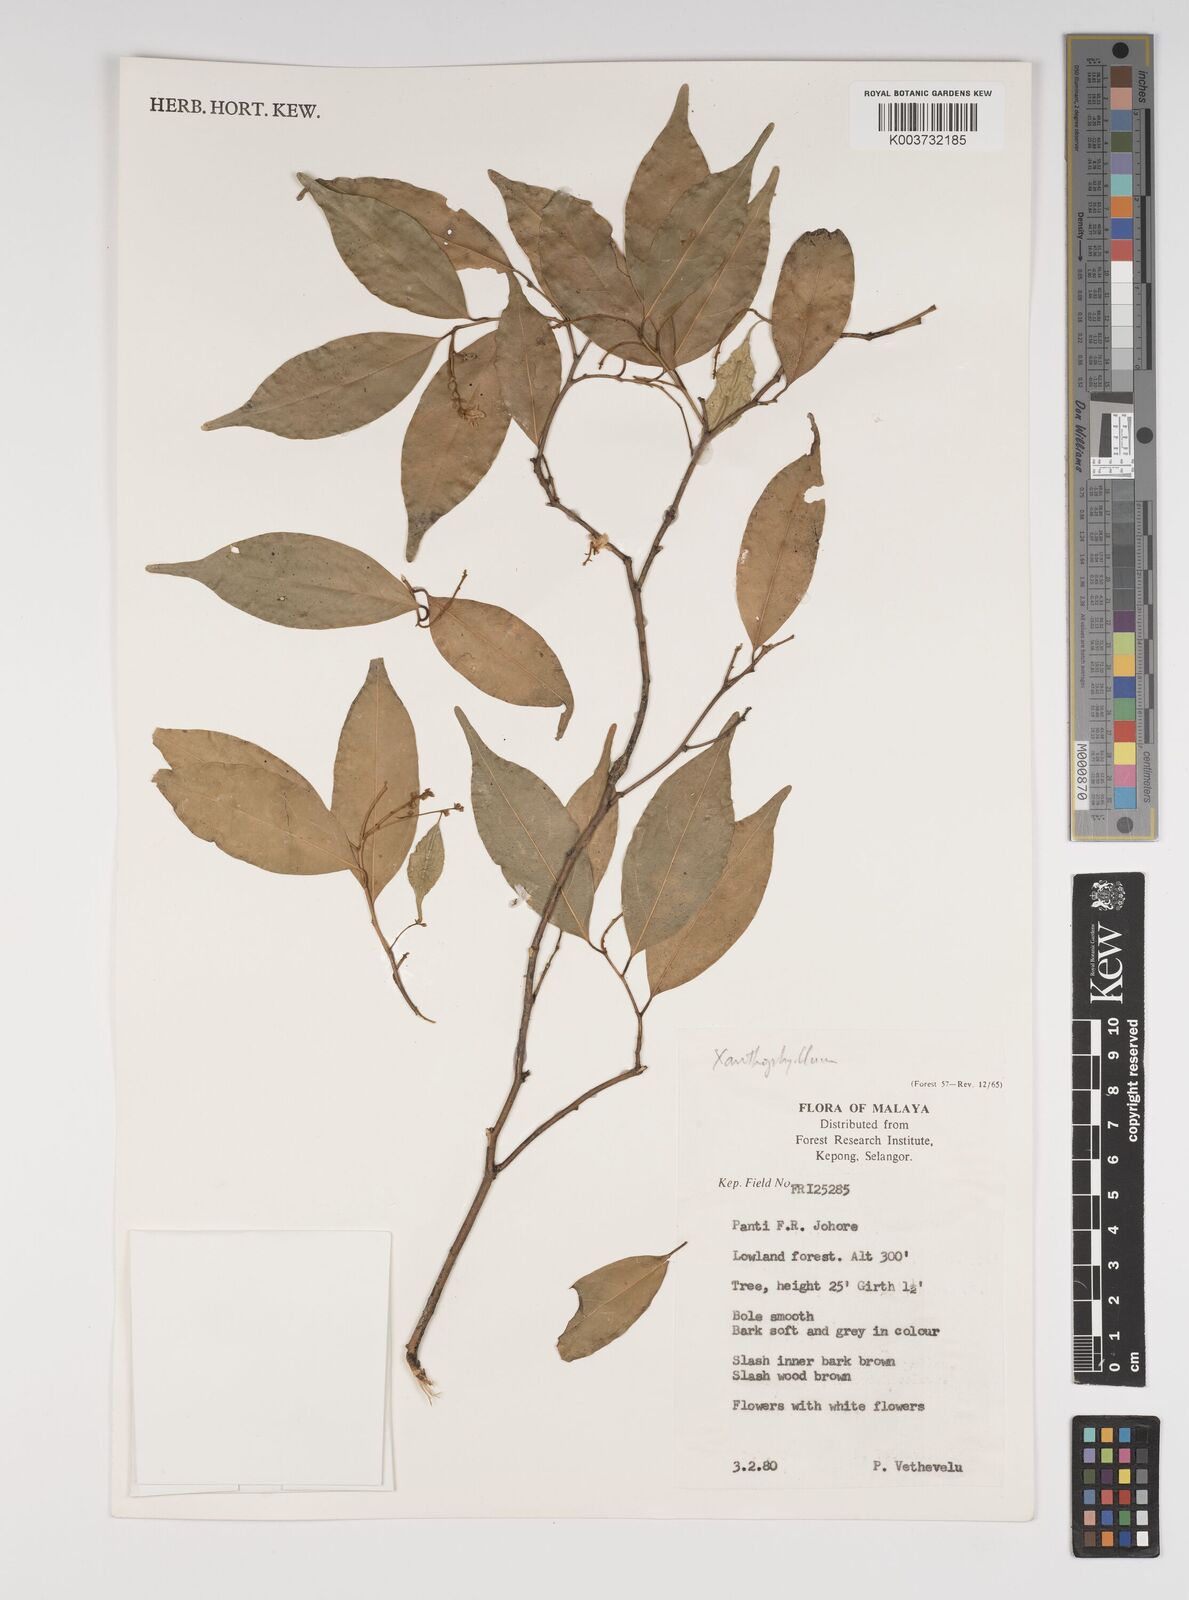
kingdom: Plantae
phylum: Tracheophyta
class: Magnoliopsida
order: Fabales
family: Polygalaceae
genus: Xanthophyllum
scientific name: Xanthophyllum
